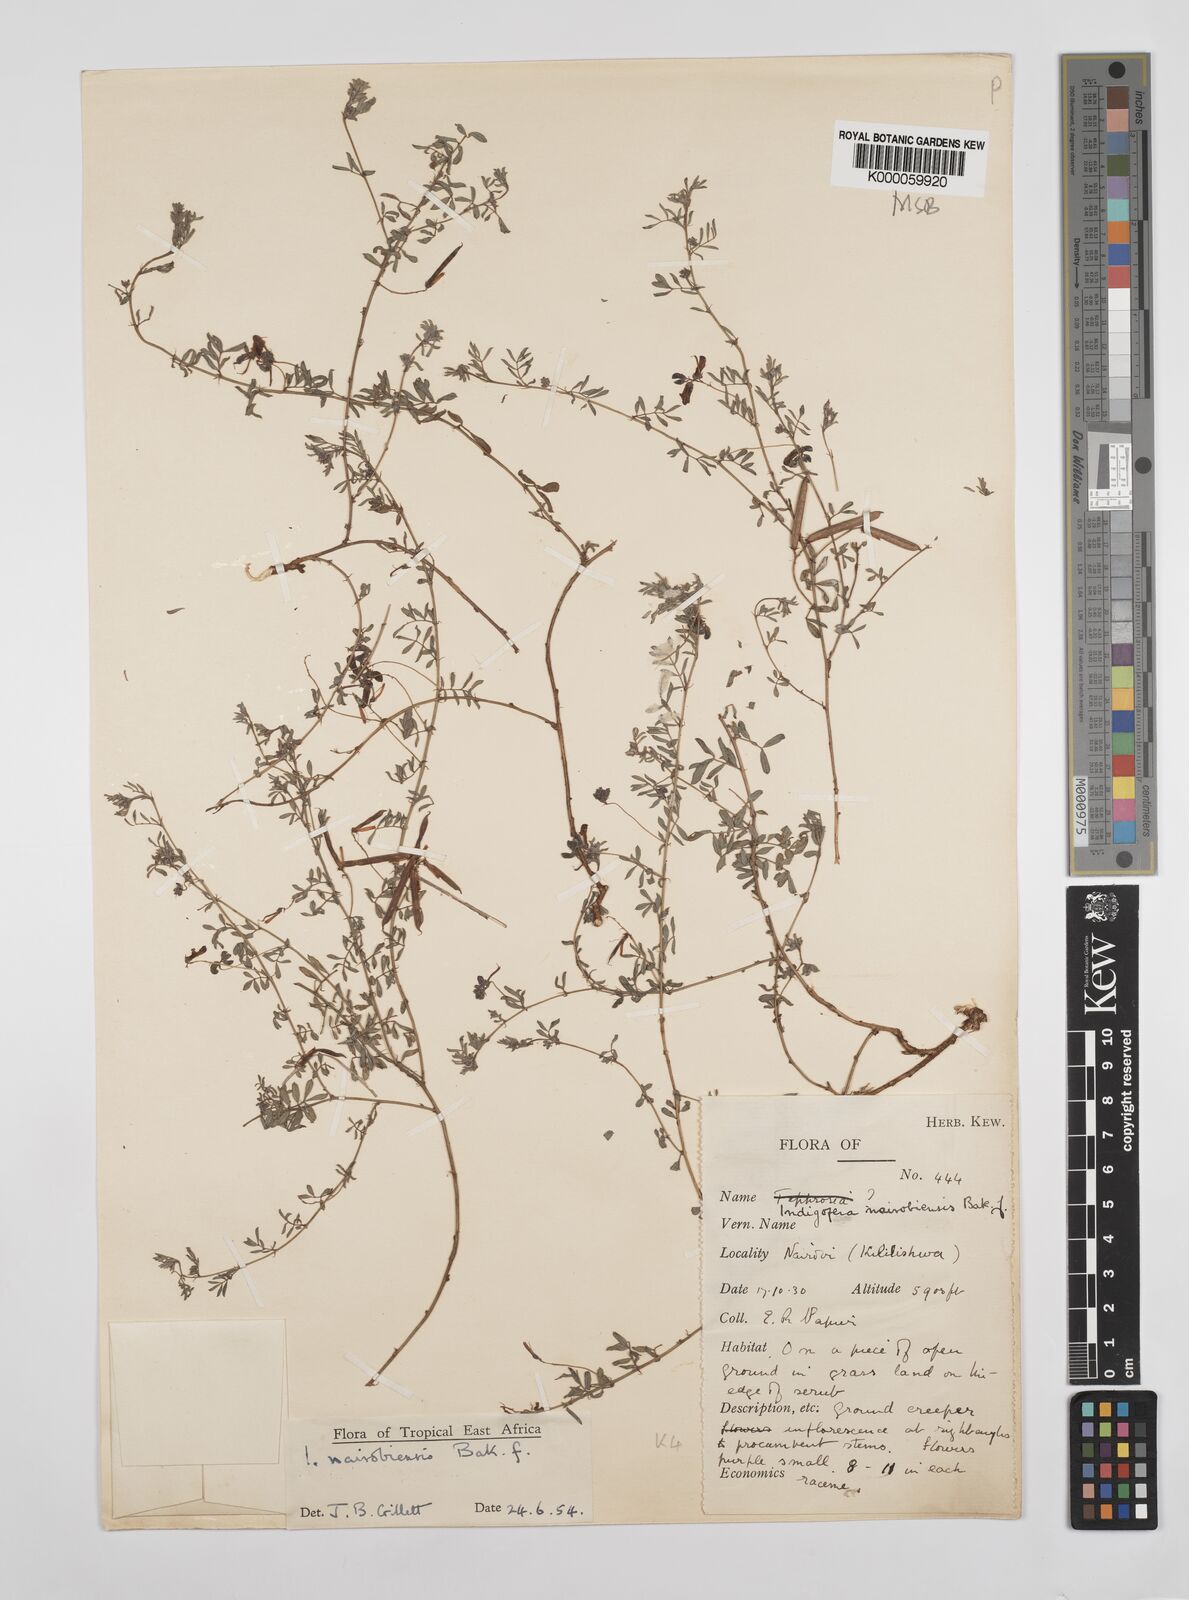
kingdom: Plantae
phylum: Tracheophyta
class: Magnoliopsida
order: Fabales
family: Fabaceae
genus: Indigofera
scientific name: Indigofera nairobiensis
